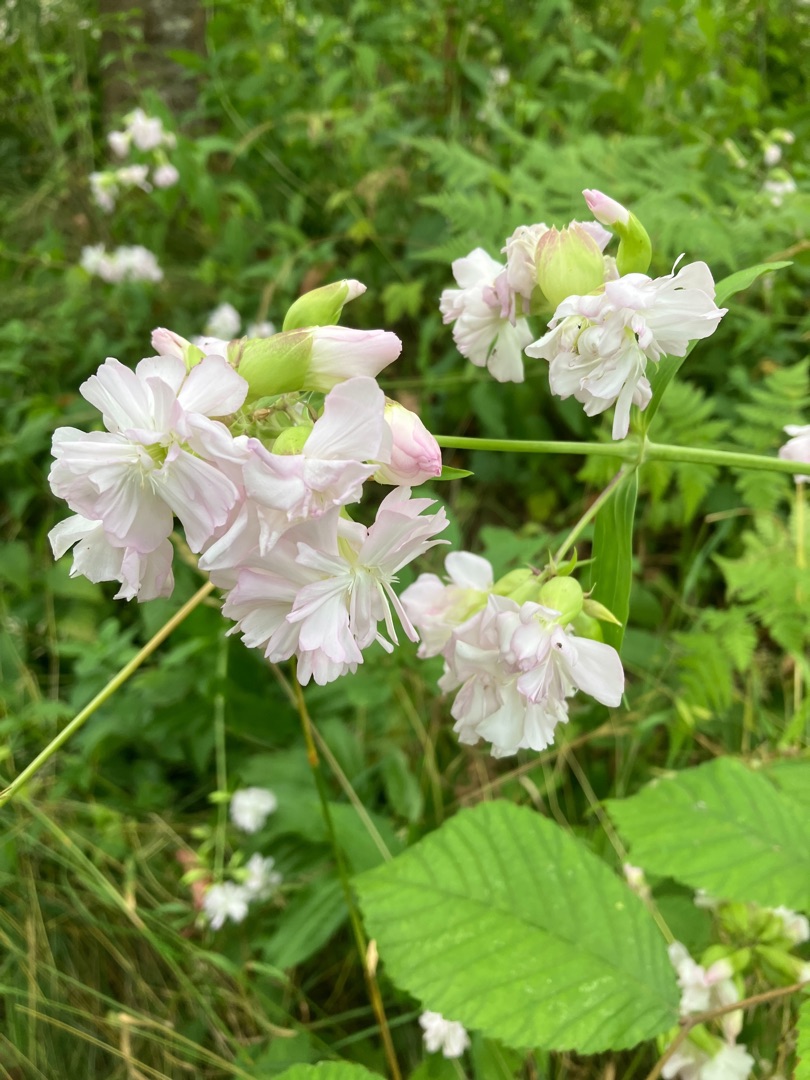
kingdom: Plantae
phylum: Tracheophyta
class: Magnoliopsida
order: Caryophyllales
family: Caryophyllaceae
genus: Saponaria
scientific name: Saponaria officinalis
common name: Sæbeurt
